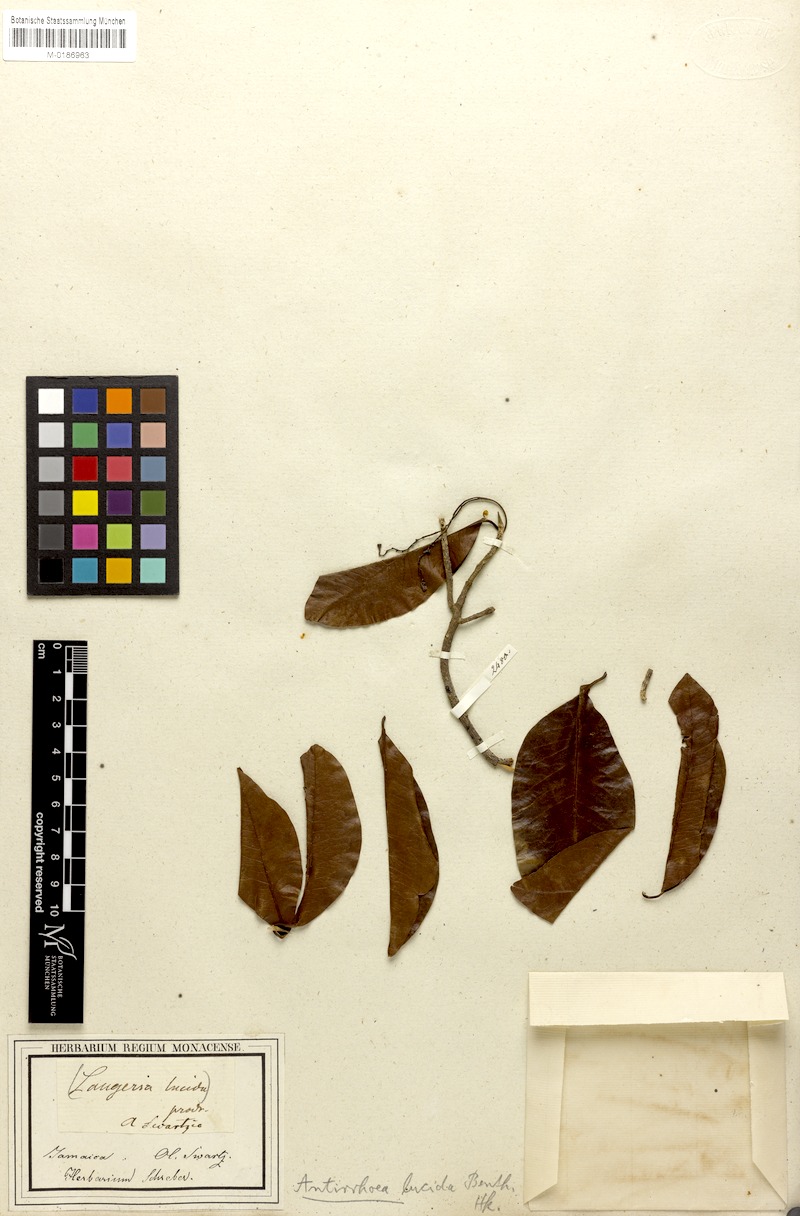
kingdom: Plantae
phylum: Tracheophyta
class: Magnoliopsida
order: Gentianales
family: Rubiaceae
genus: Stenostomum
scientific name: Stenostomum lucidum
